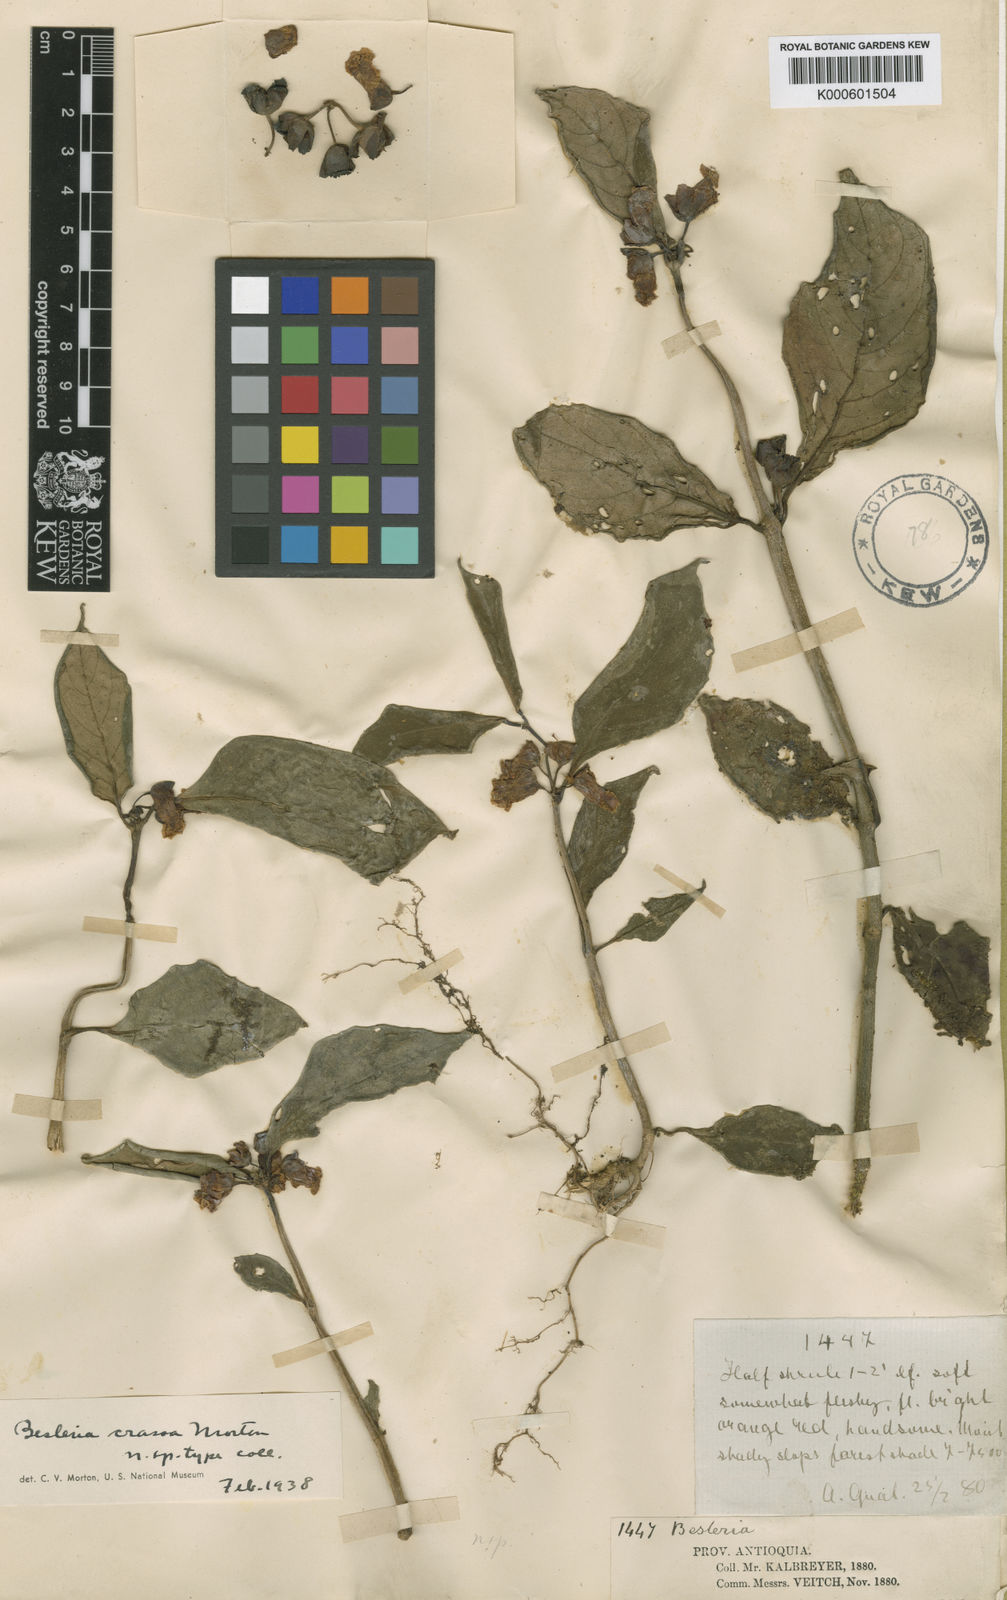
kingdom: Plantae
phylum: Tracheophyta
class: Magnoliopsida
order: Lamiales
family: Gesneriaceae
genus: Besleria
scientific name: Besleria crassa
